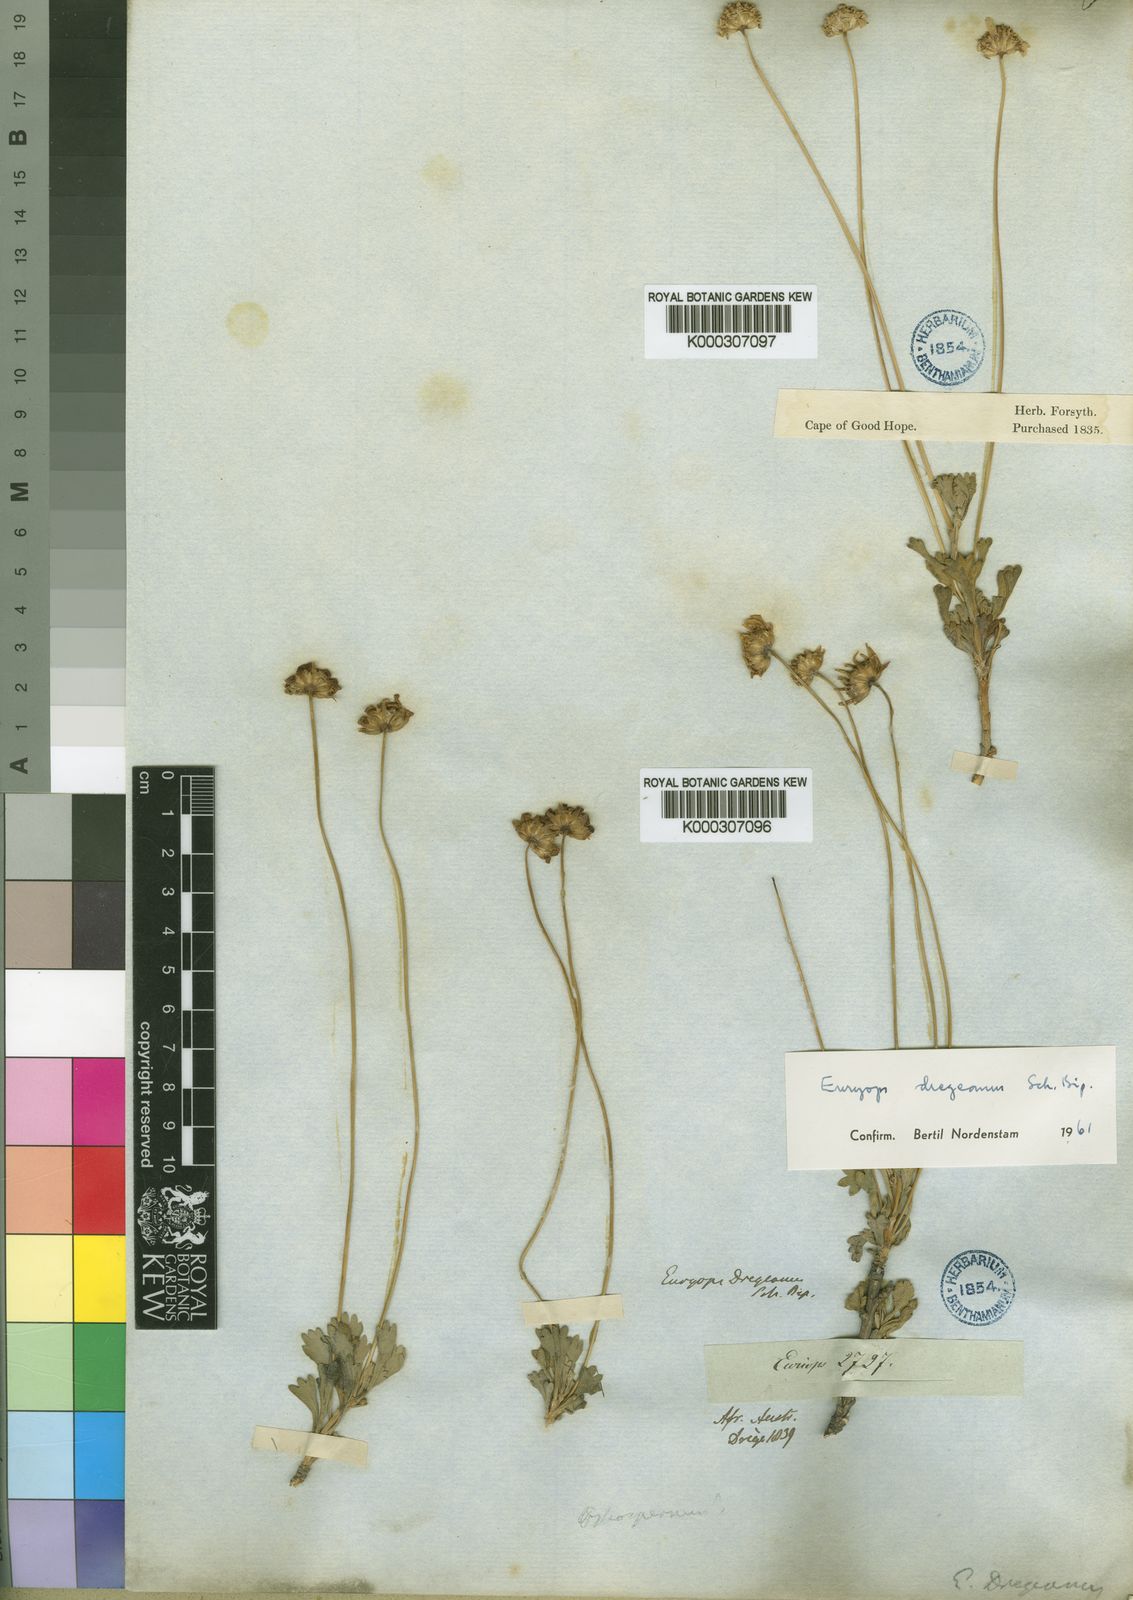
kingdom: Plantae
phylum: Tracheophyta
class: Magnoliopsida
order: Asterales
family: Asteraceae
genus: Euryops
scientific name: Euryops dregeanus
